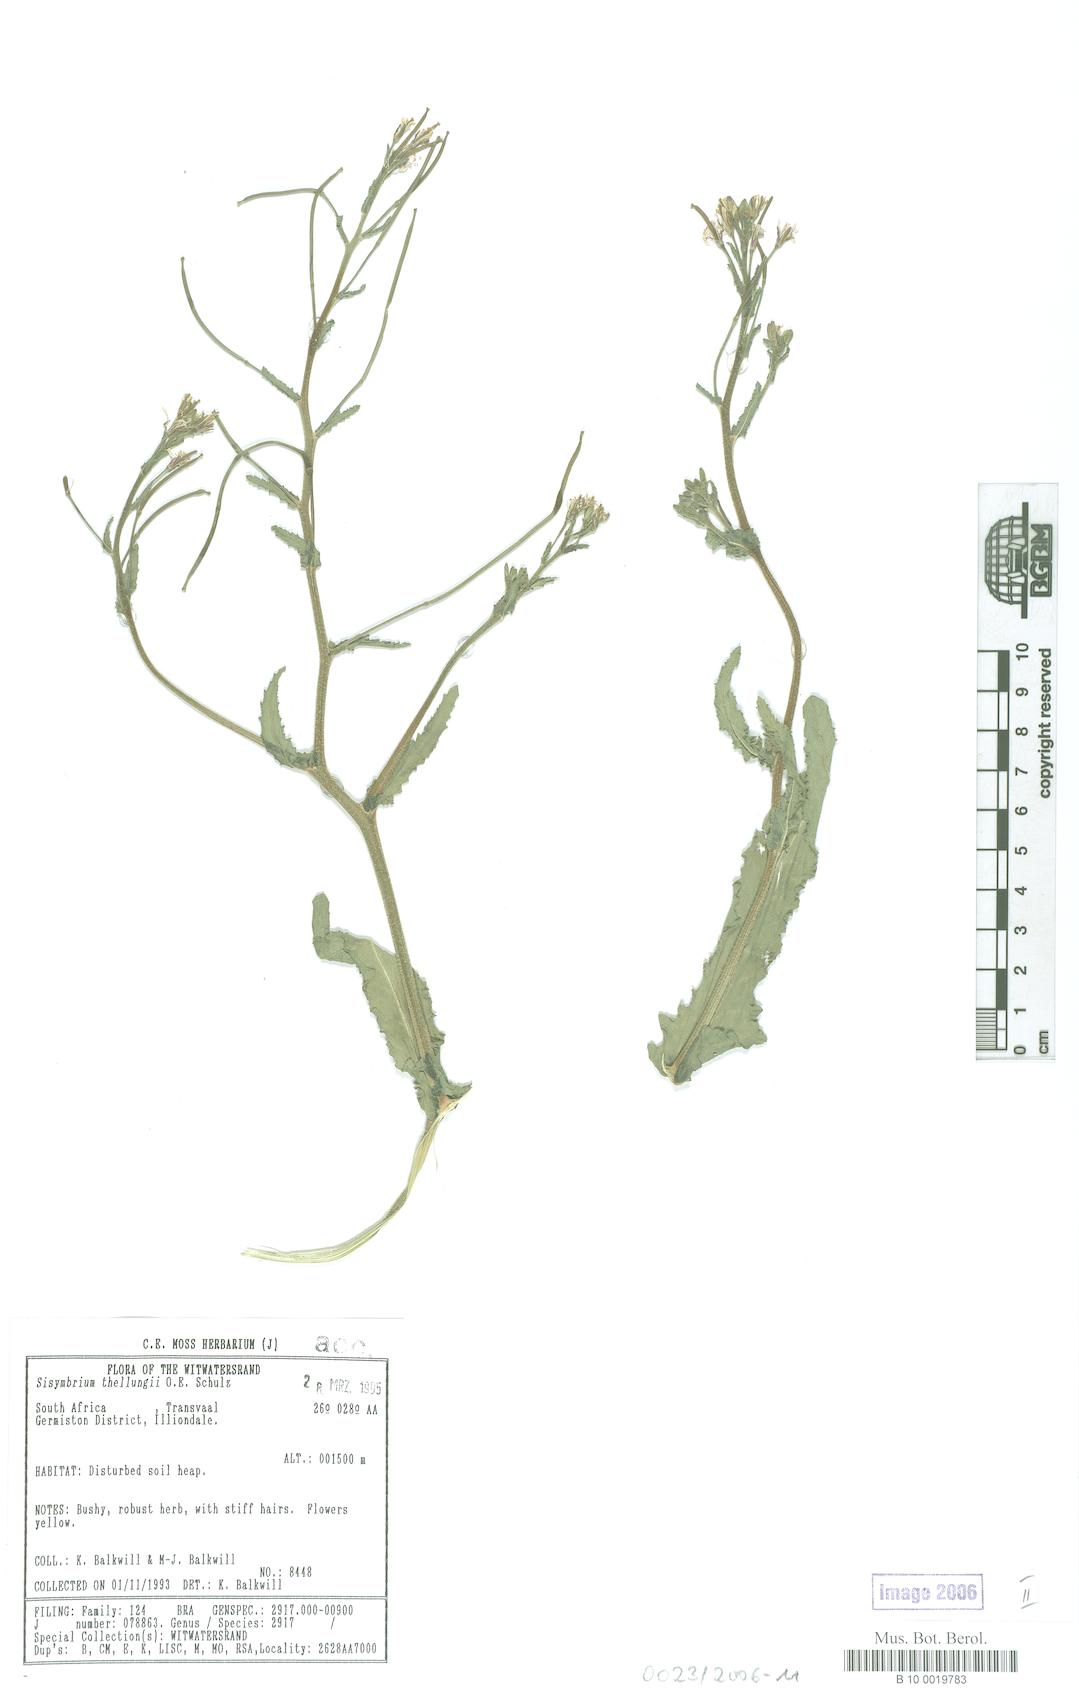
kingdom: Plantae
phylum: Tracheophyta
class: Magnoliopsida
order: Brassicales
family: Brassicaceae
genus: Erucastrum
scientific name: Erucastrum austroafricanum
